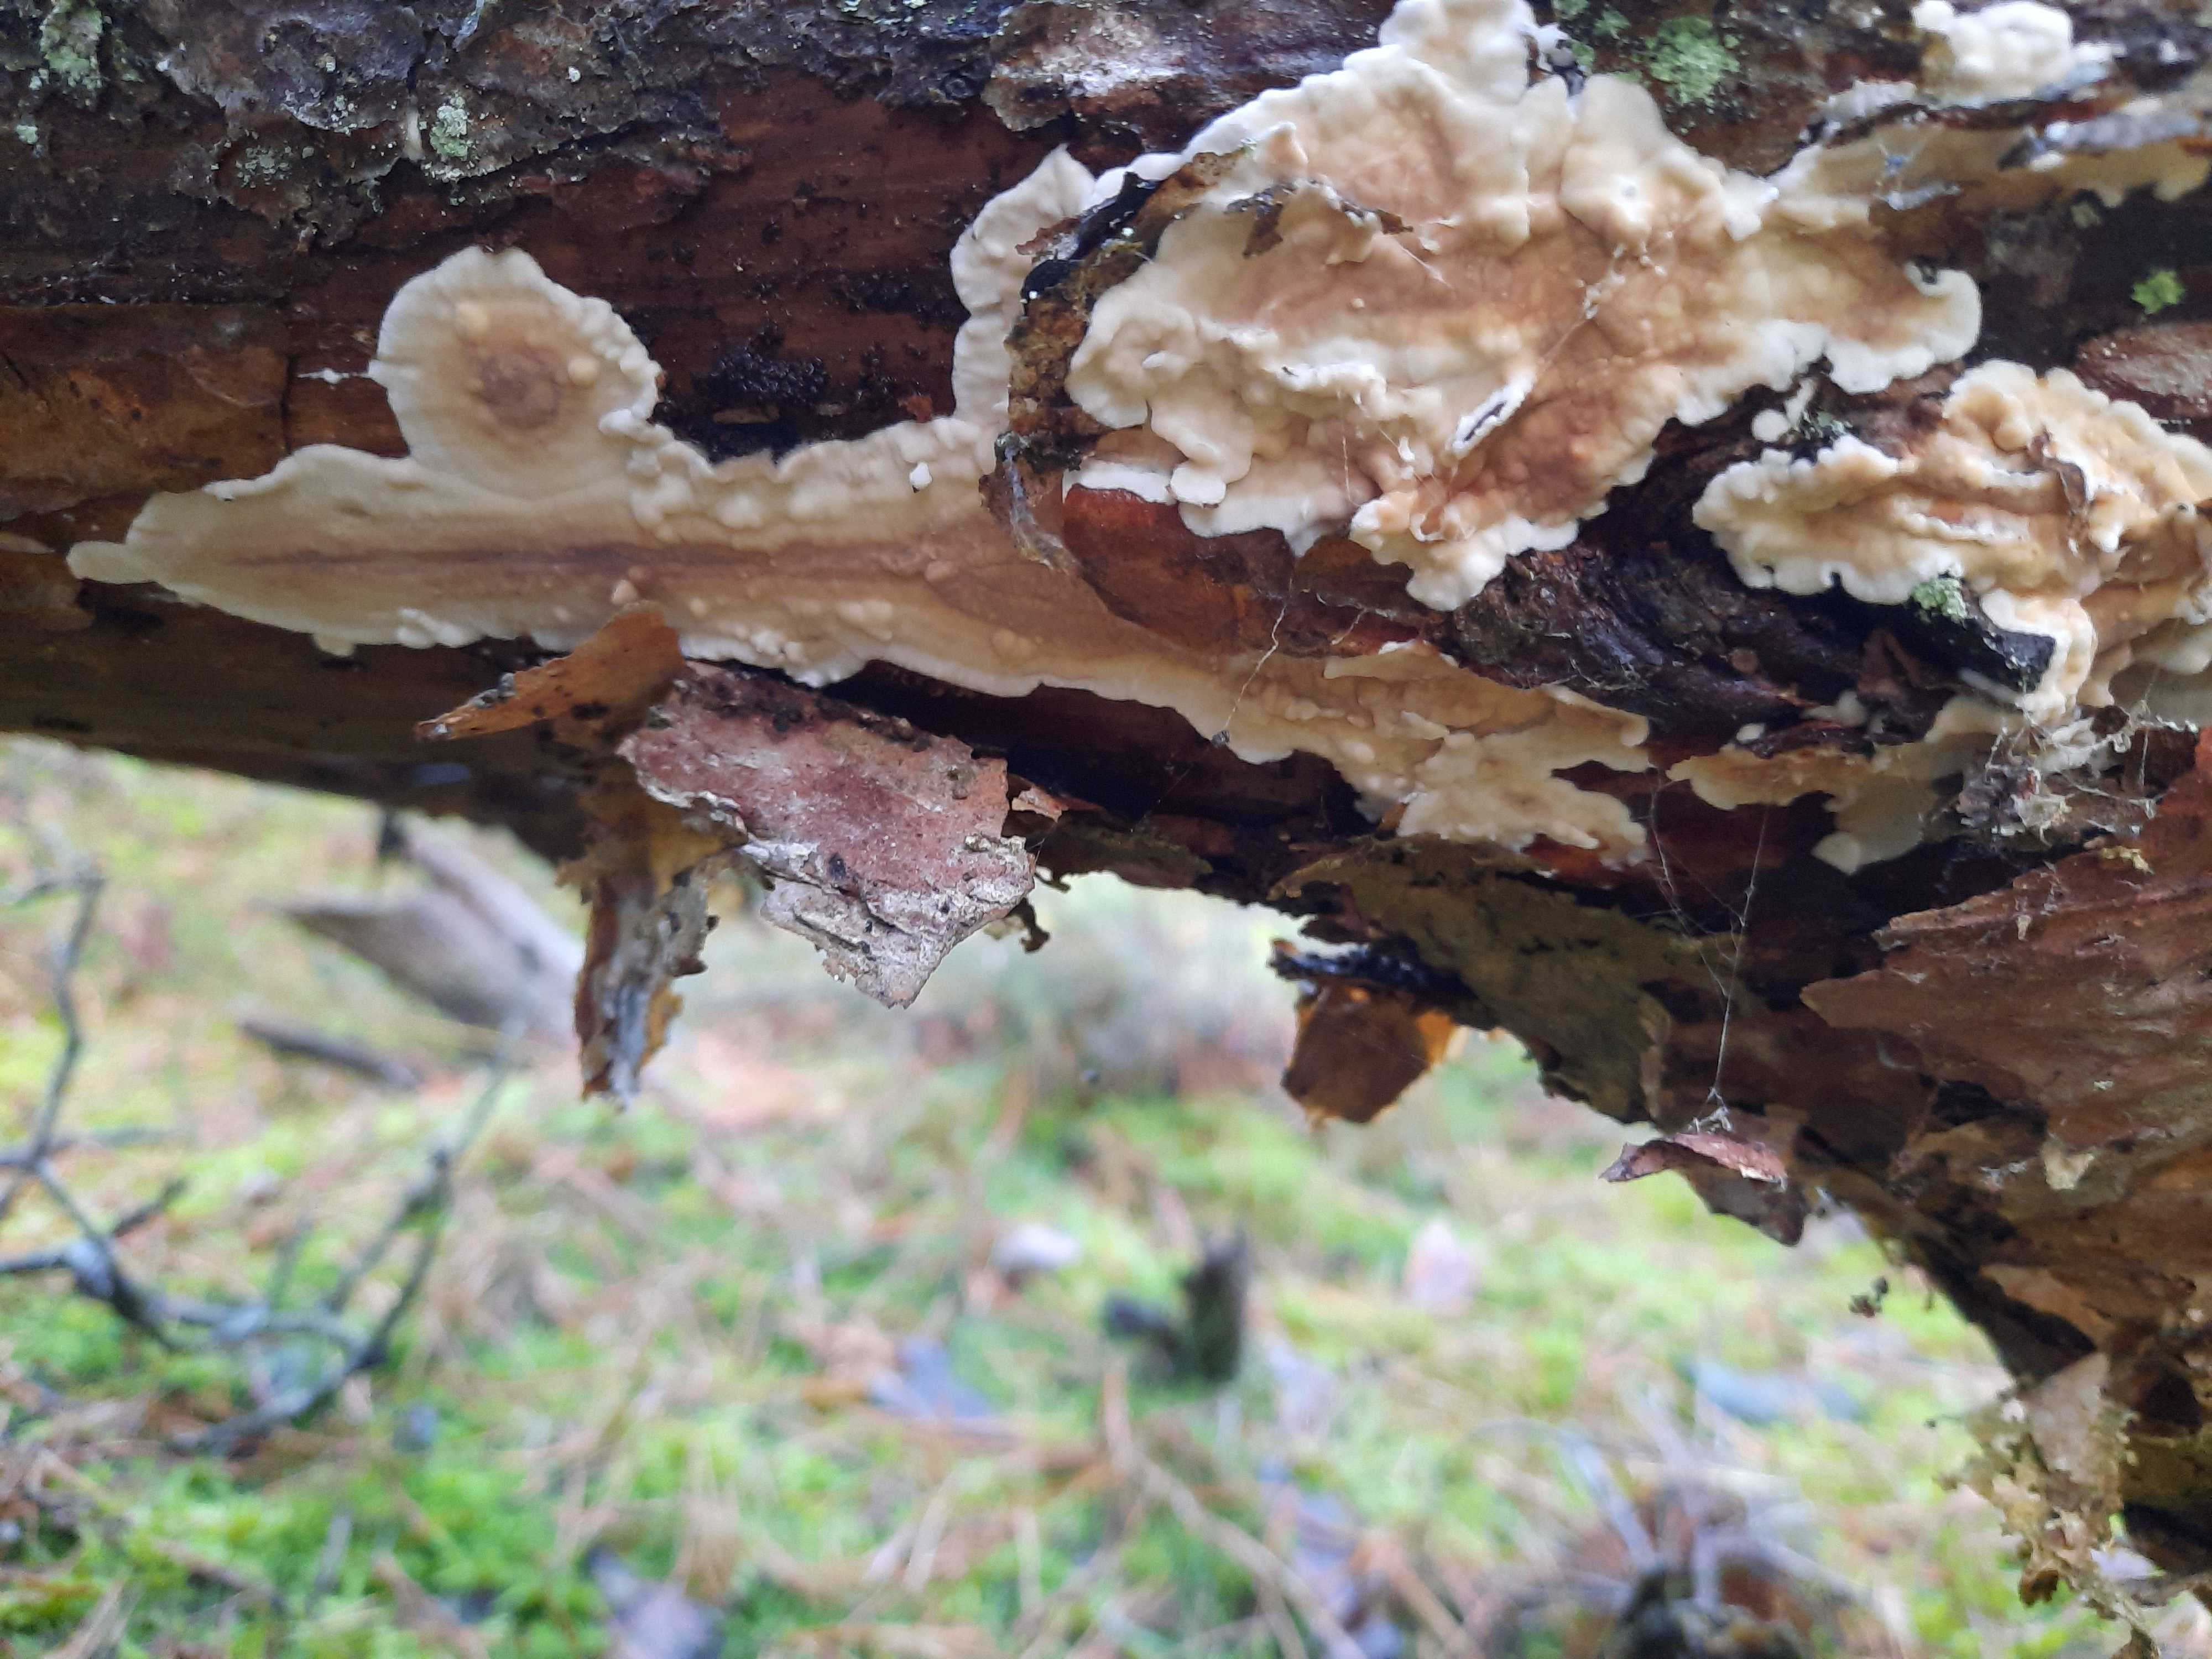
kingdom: Fungi
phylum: Basidiomycota
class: Agaricomycetes
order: Polyporales
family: Irpicaceae
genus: Meruliopsis
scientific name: Meruliopsis taxicola
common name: purpurbrun foldporesvamp
